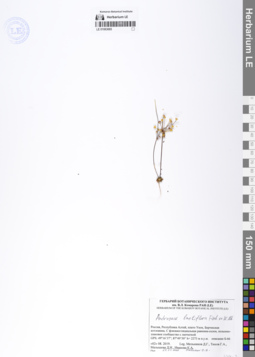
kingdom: Plantae
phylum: Tracheophyta
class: Magnoliopsida
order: Ericales
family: Primulaceae
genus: Androsace
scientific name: Androsace lactiflora
